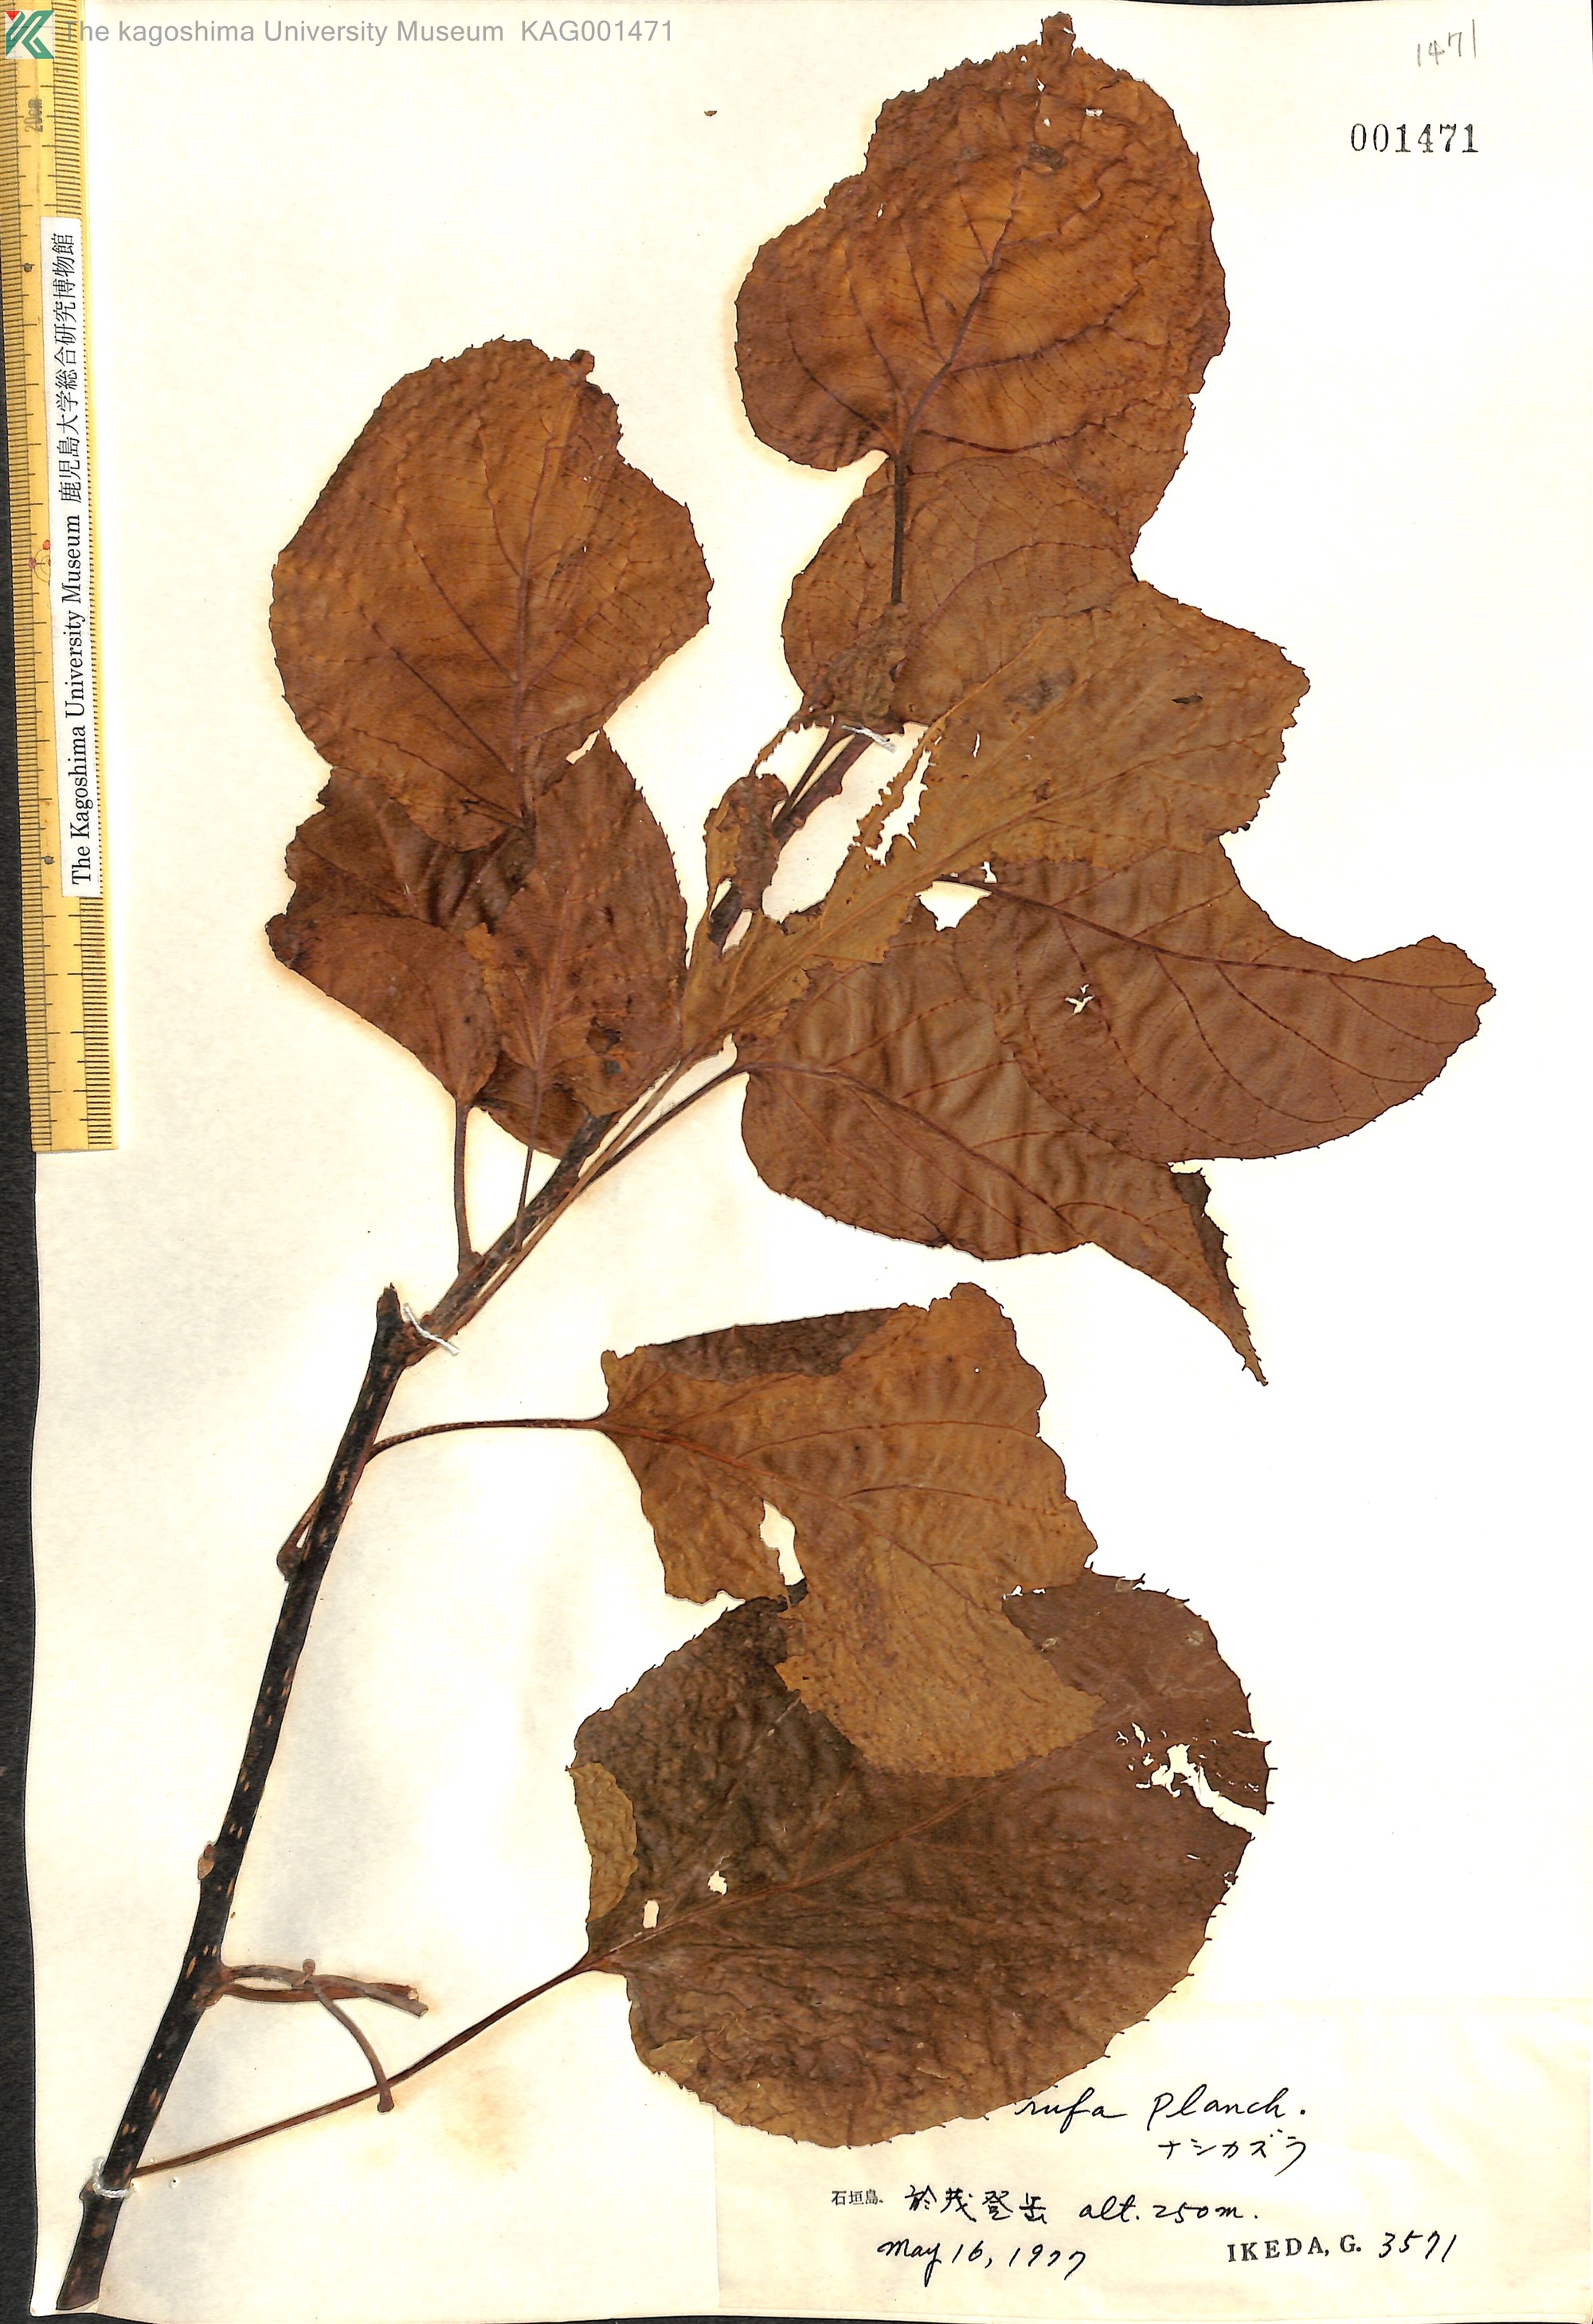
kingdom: Plantae
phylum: Tracheophyta
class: Magnoliopsida
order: Ericales
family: Actinidiaceae
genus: Actinidia
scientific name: Actinidia rufa
